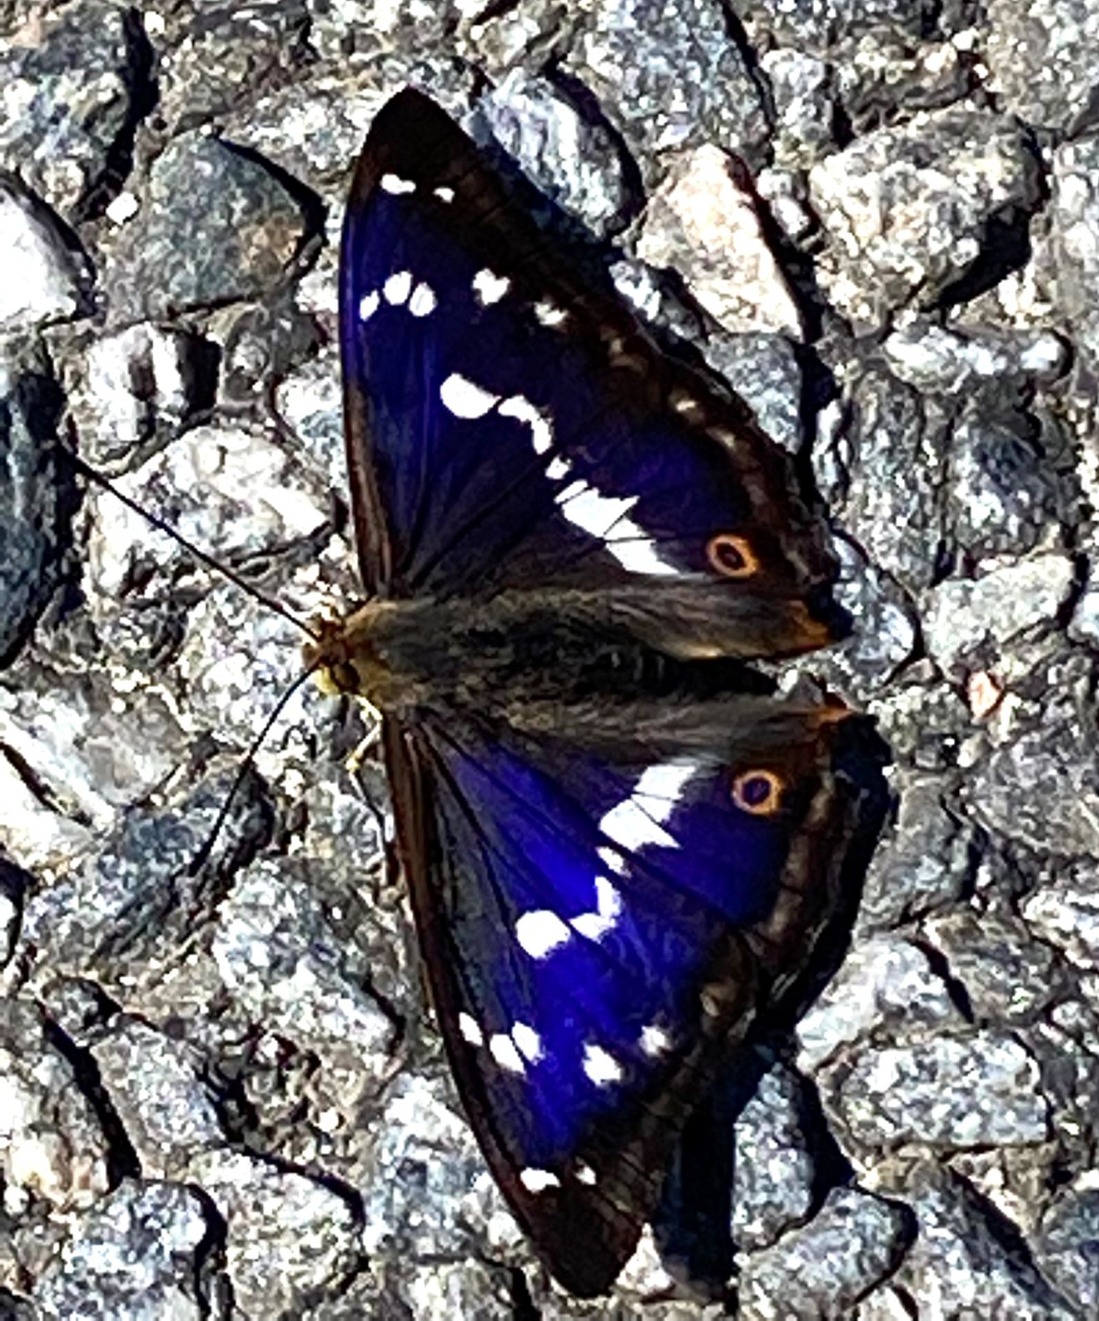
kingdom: Animalia
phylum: Arthropoda
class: Insecta
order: Lepidoptera
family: Nymphalidae
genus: Apatura
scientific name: Apatura iris
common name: Iris
